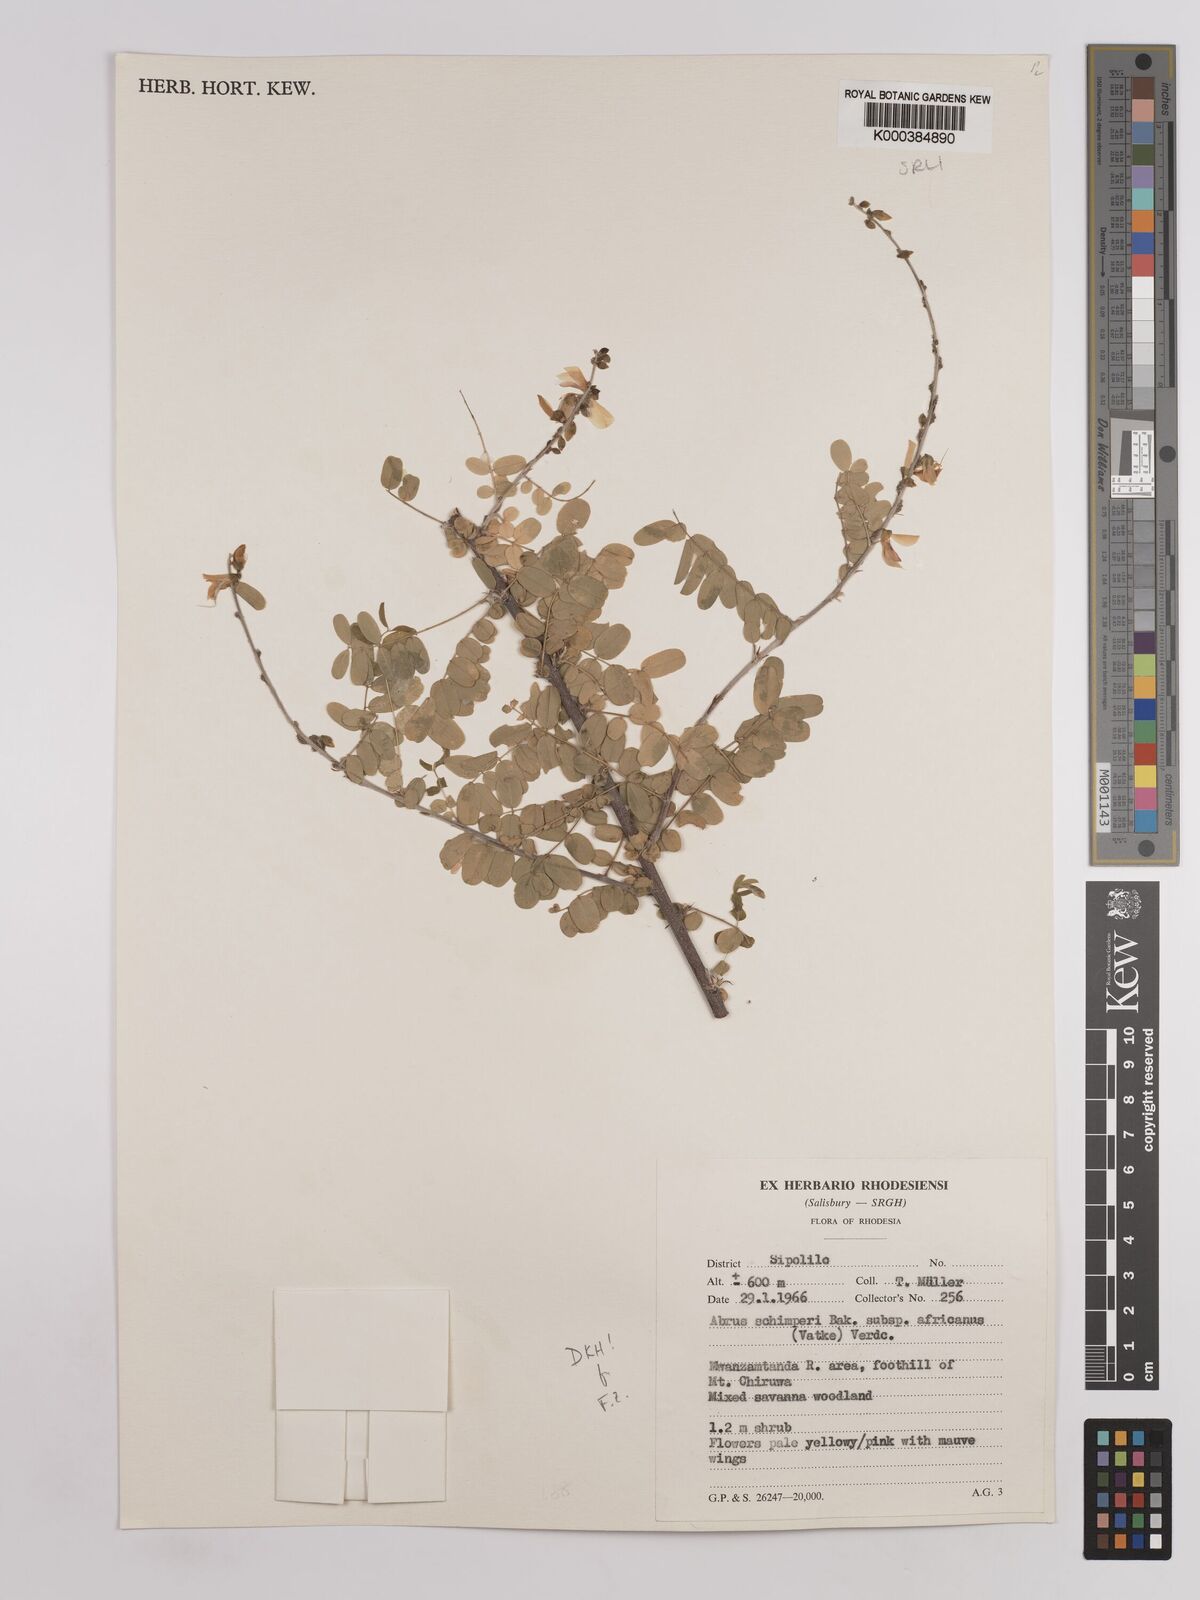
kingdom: Plantae
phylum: Tracheophyta
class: Magnoliopsida
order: Fabales
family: Fabaceae
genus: Abrus
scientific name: Abrus
